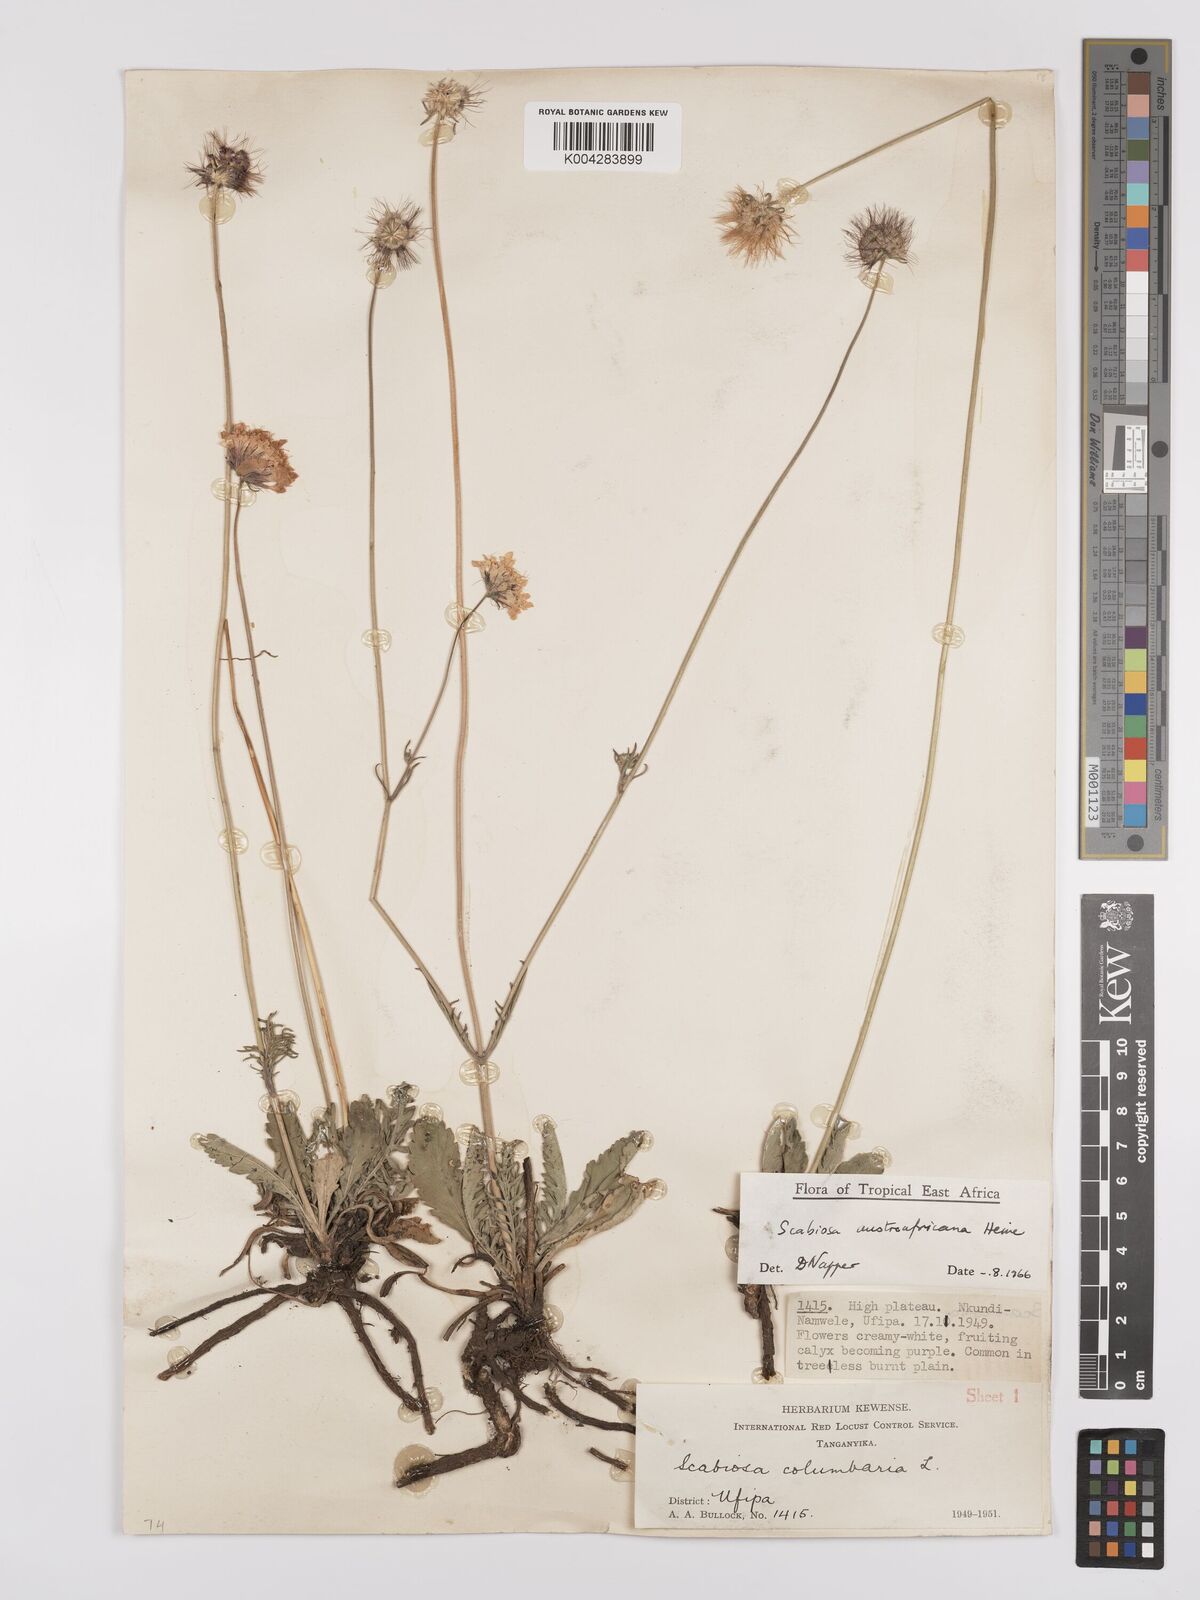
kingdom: Plantae
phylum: Tracheophyta
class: Magnoliopsida
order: Dipsacales
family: Caprifoliaceae
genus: Scabiosa
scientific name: Scabiosa austroafricana
